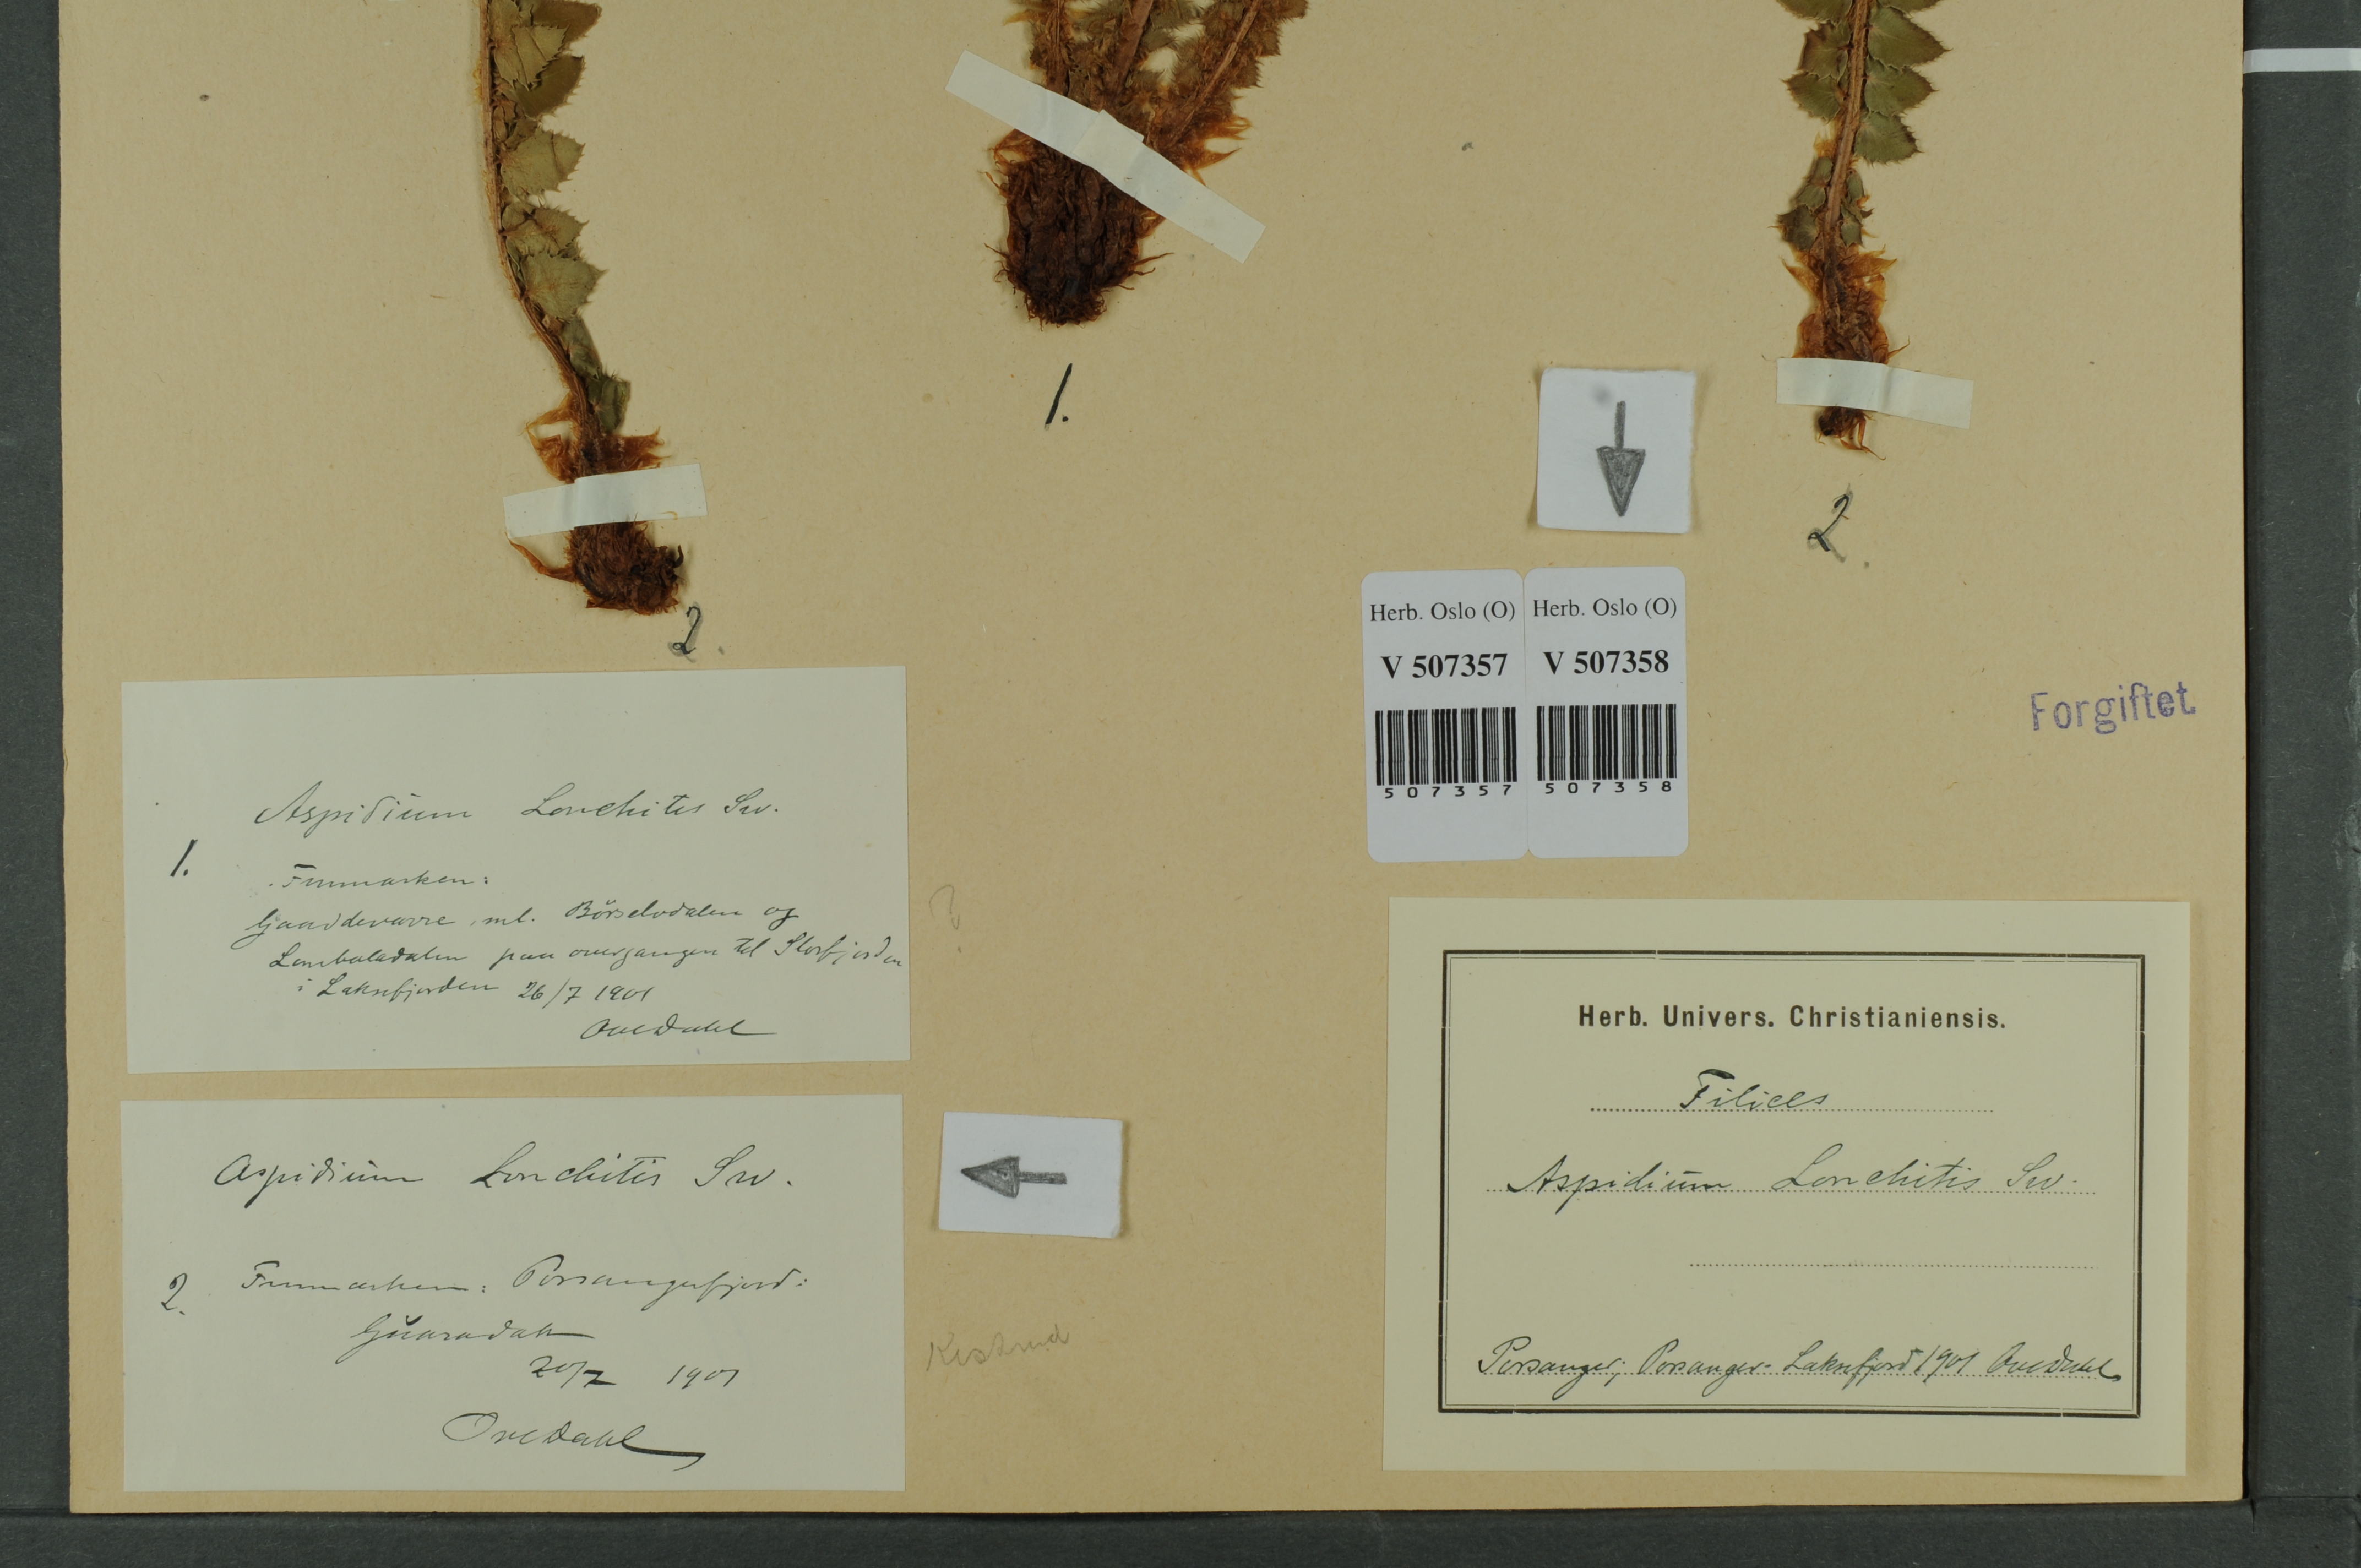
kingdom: Plantae
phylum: Tracheophyta
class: Polypodiopsida
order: Polypodiales
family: Dryopteridaceae
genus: Polystichum
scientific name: Polystichum lonchitis
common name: Holly fern
